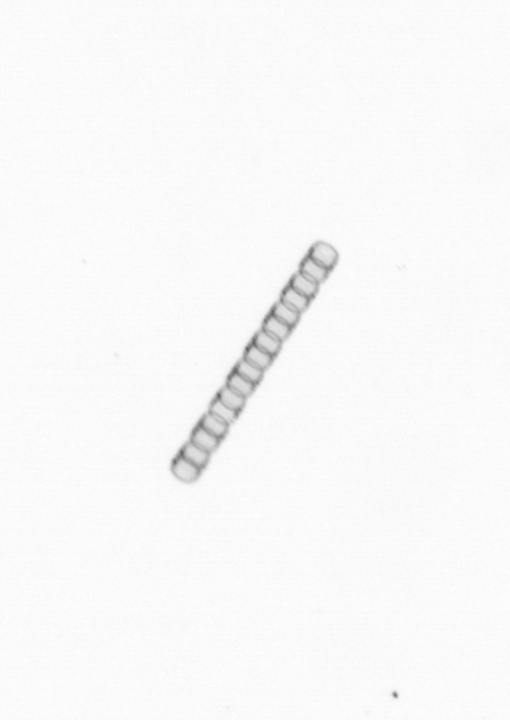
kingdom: Chromista
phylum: Ochrophyta
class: Bacillariophyceae
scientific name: Bacillariophyceae
